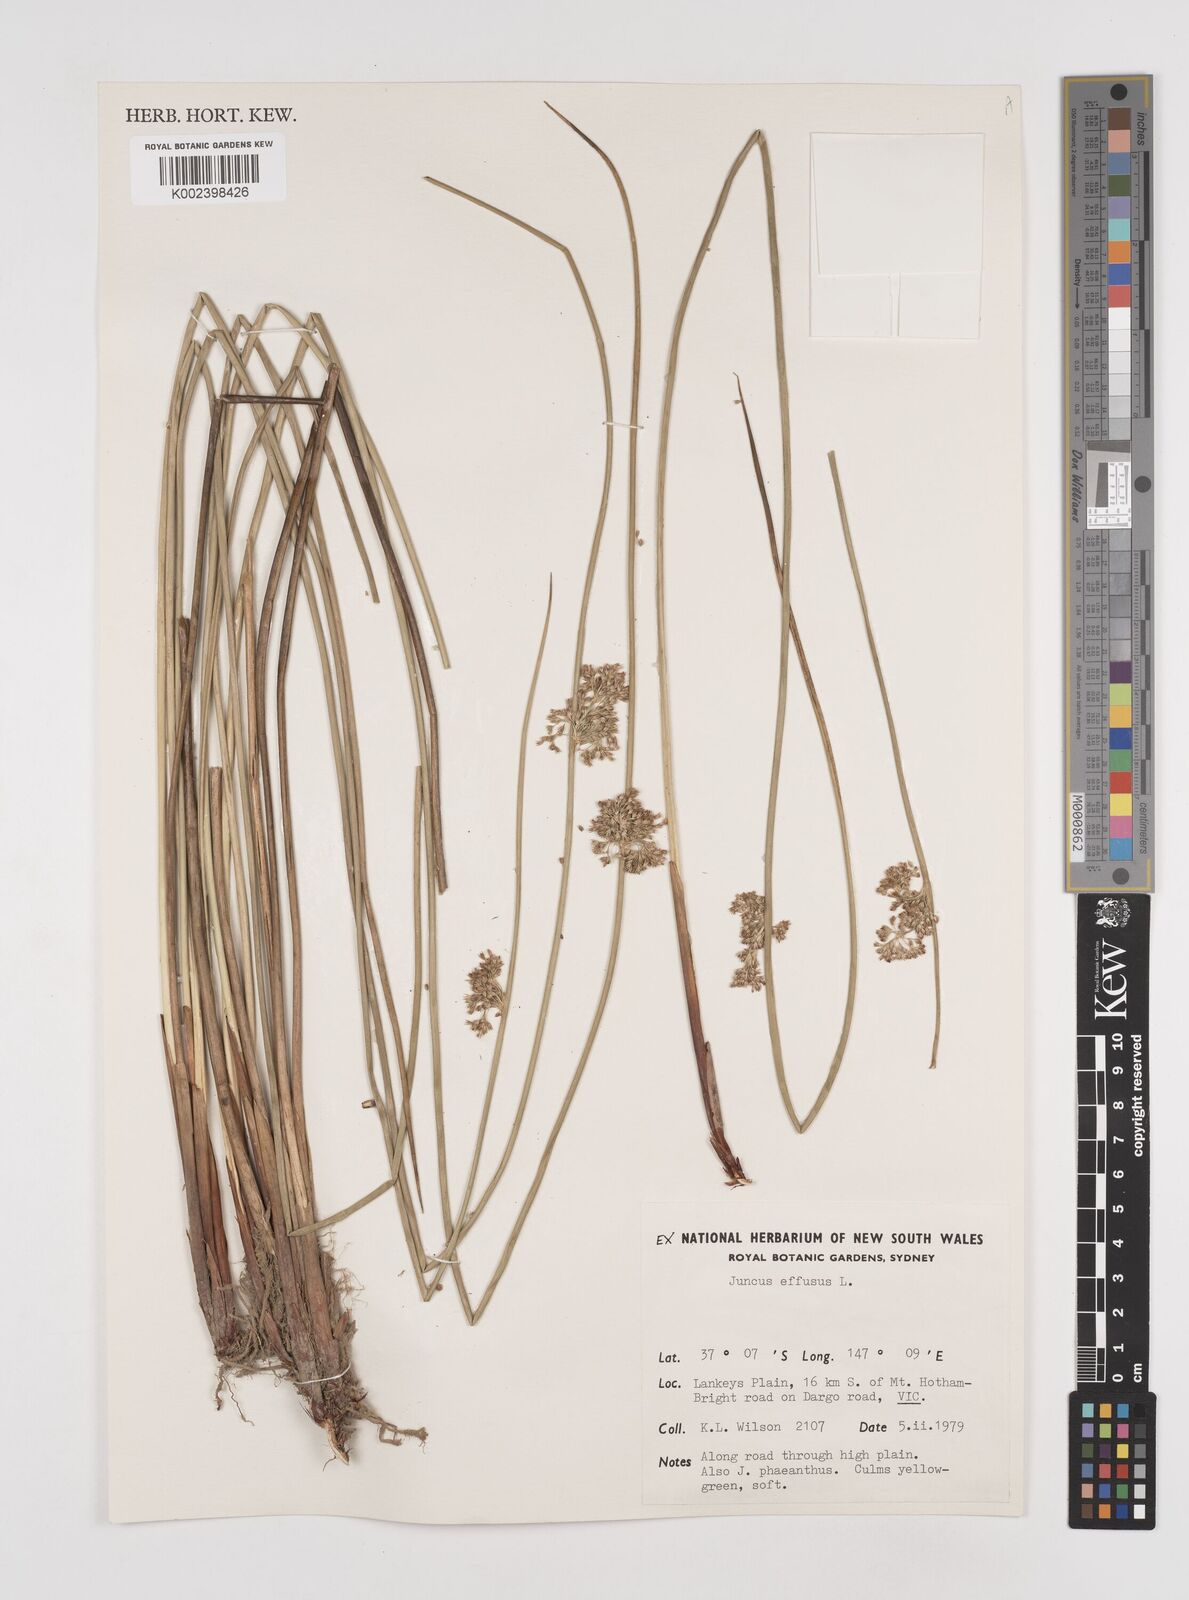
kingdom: Plantae
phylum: Tracheophyta
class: Liliopsida
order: Poales
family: Juncaceae
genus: Juncus
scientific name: Juncus effusus
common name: Soft rush
